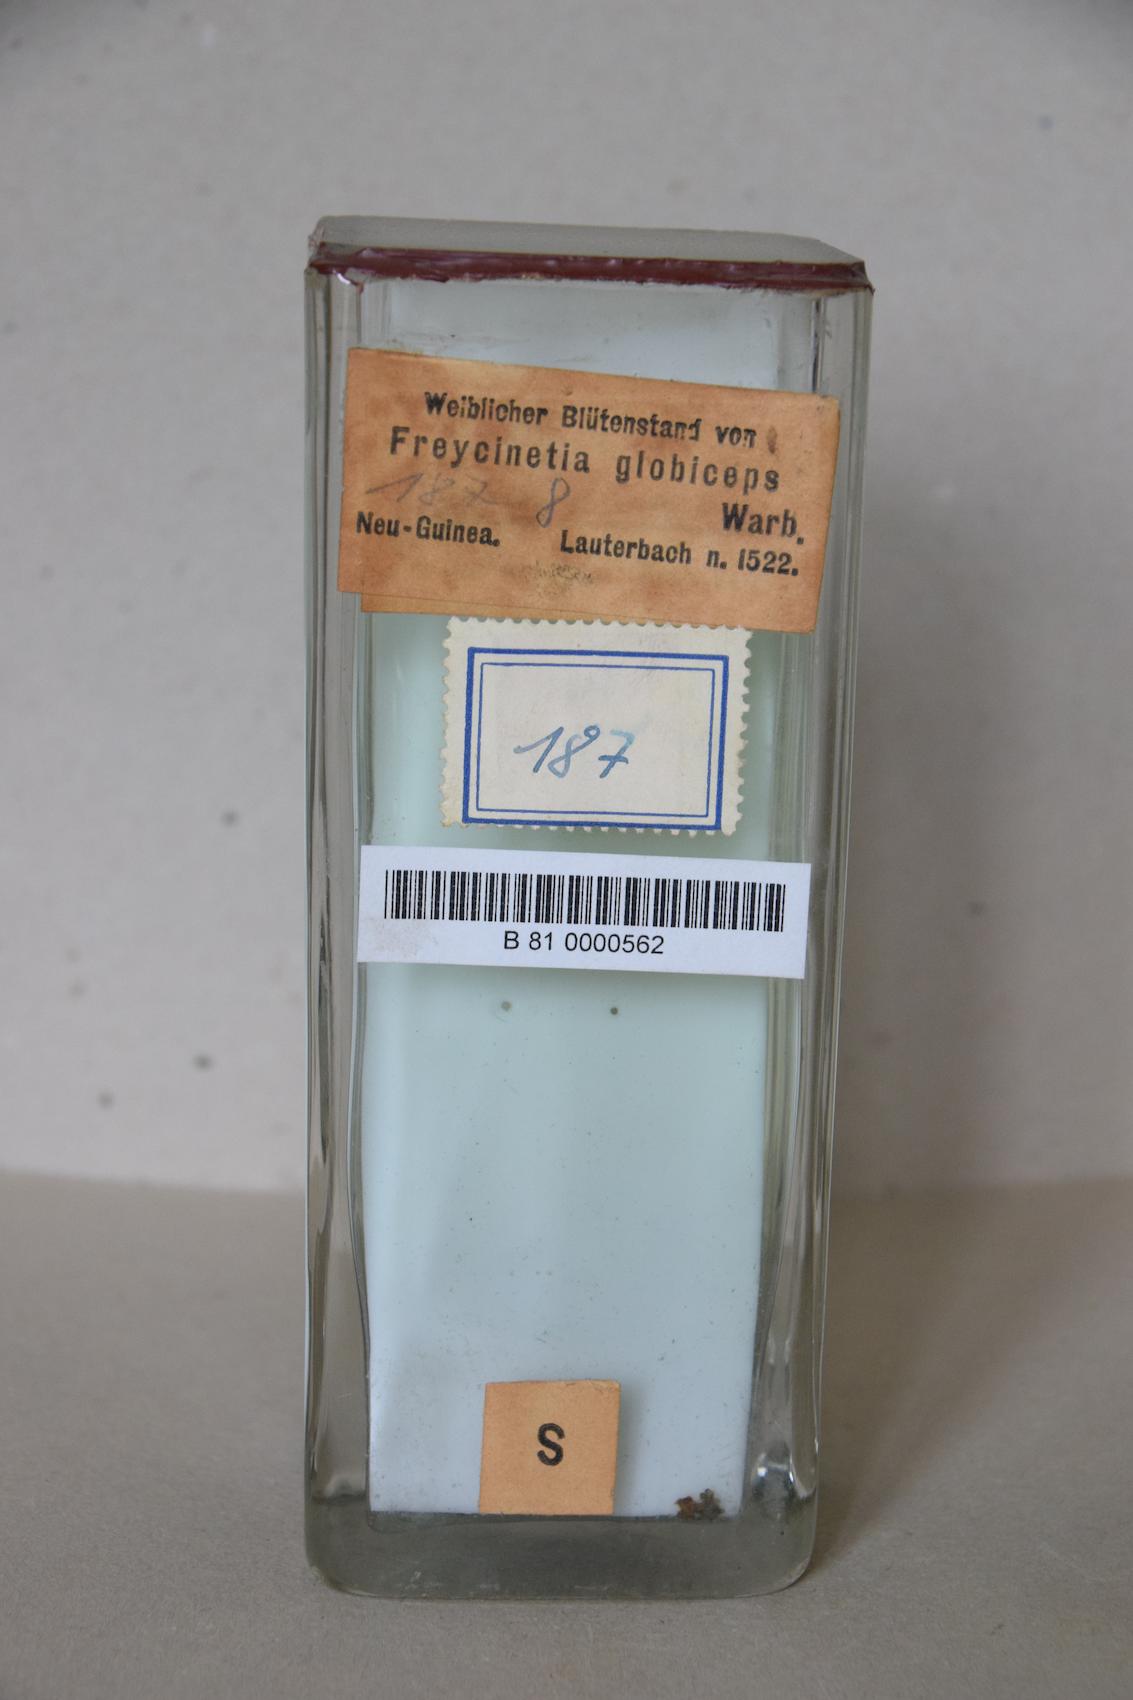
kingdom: Plantae
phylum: Tracheophyta
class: Liliopsida
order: Pandanales
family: Pandanaceae
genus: Freycinetia
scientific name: Freycinetia scandens
